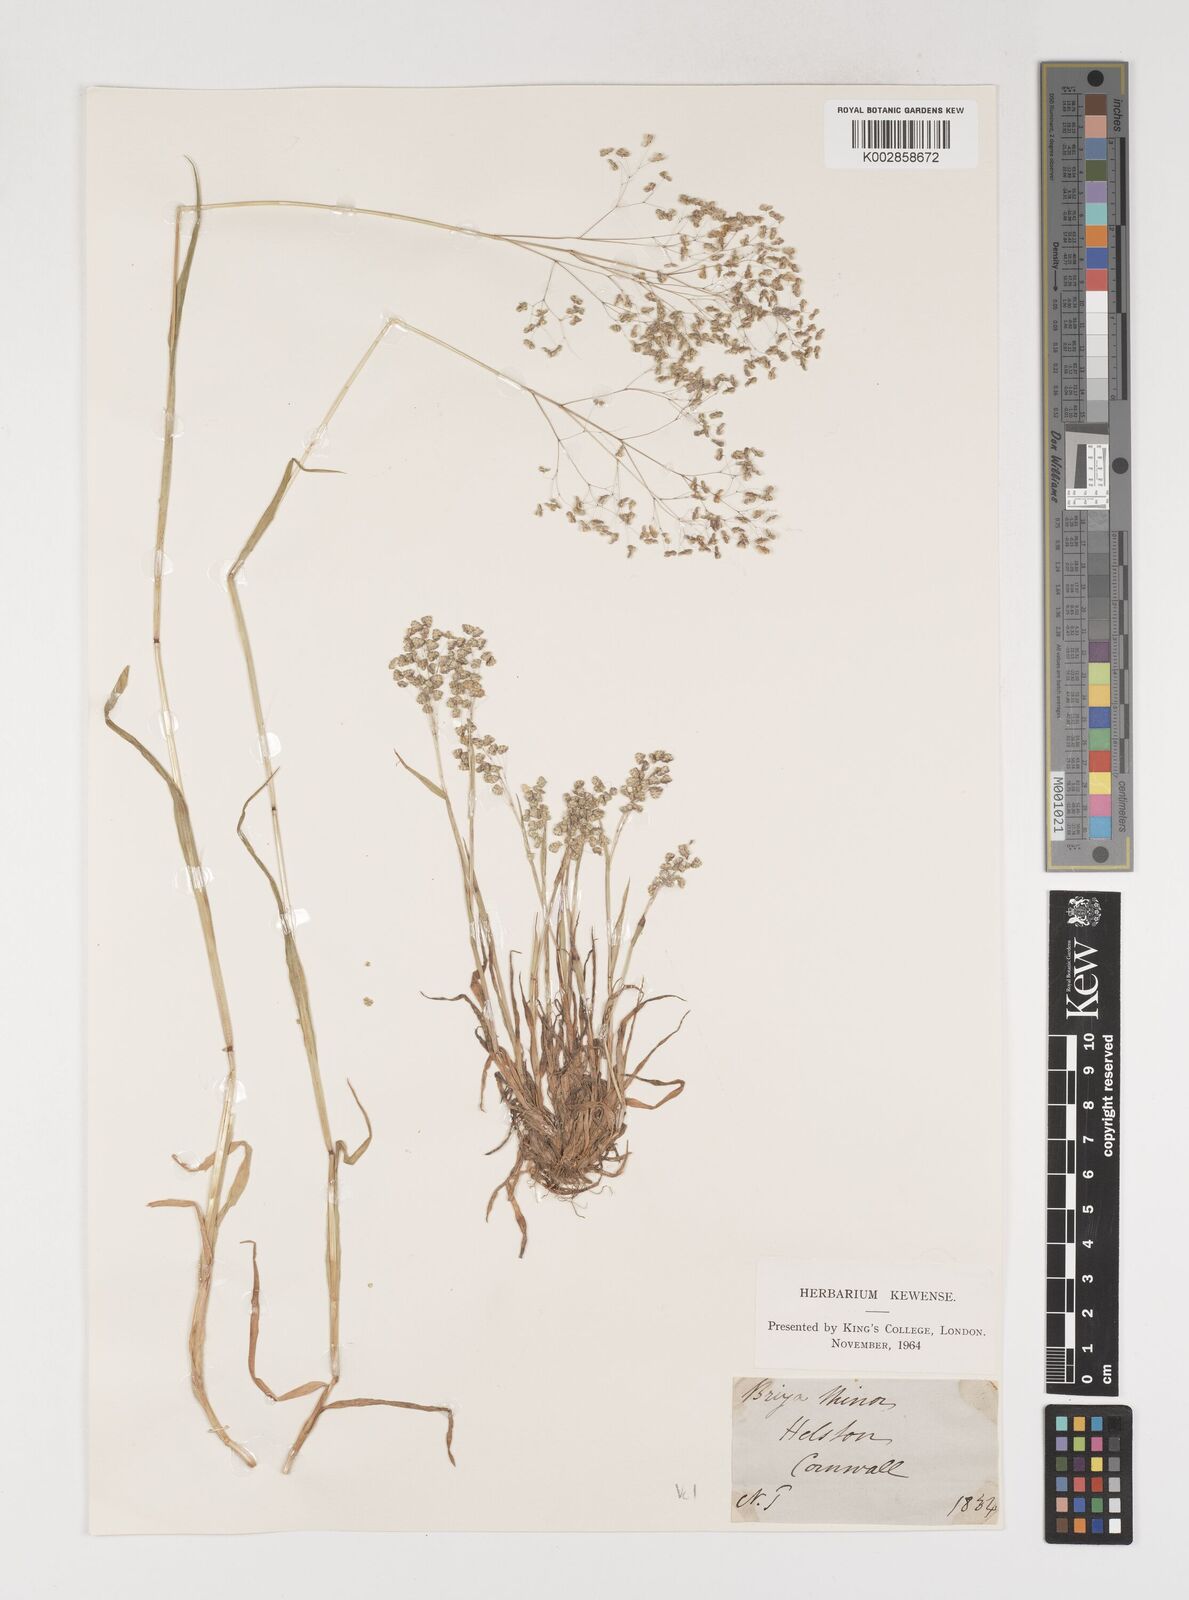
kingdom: Plantae
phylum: Tracheophyta
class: Liliopsida
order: Poales
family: Poaceae
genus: Briza
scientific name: Briza minor
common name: Lesser quaking-grass
